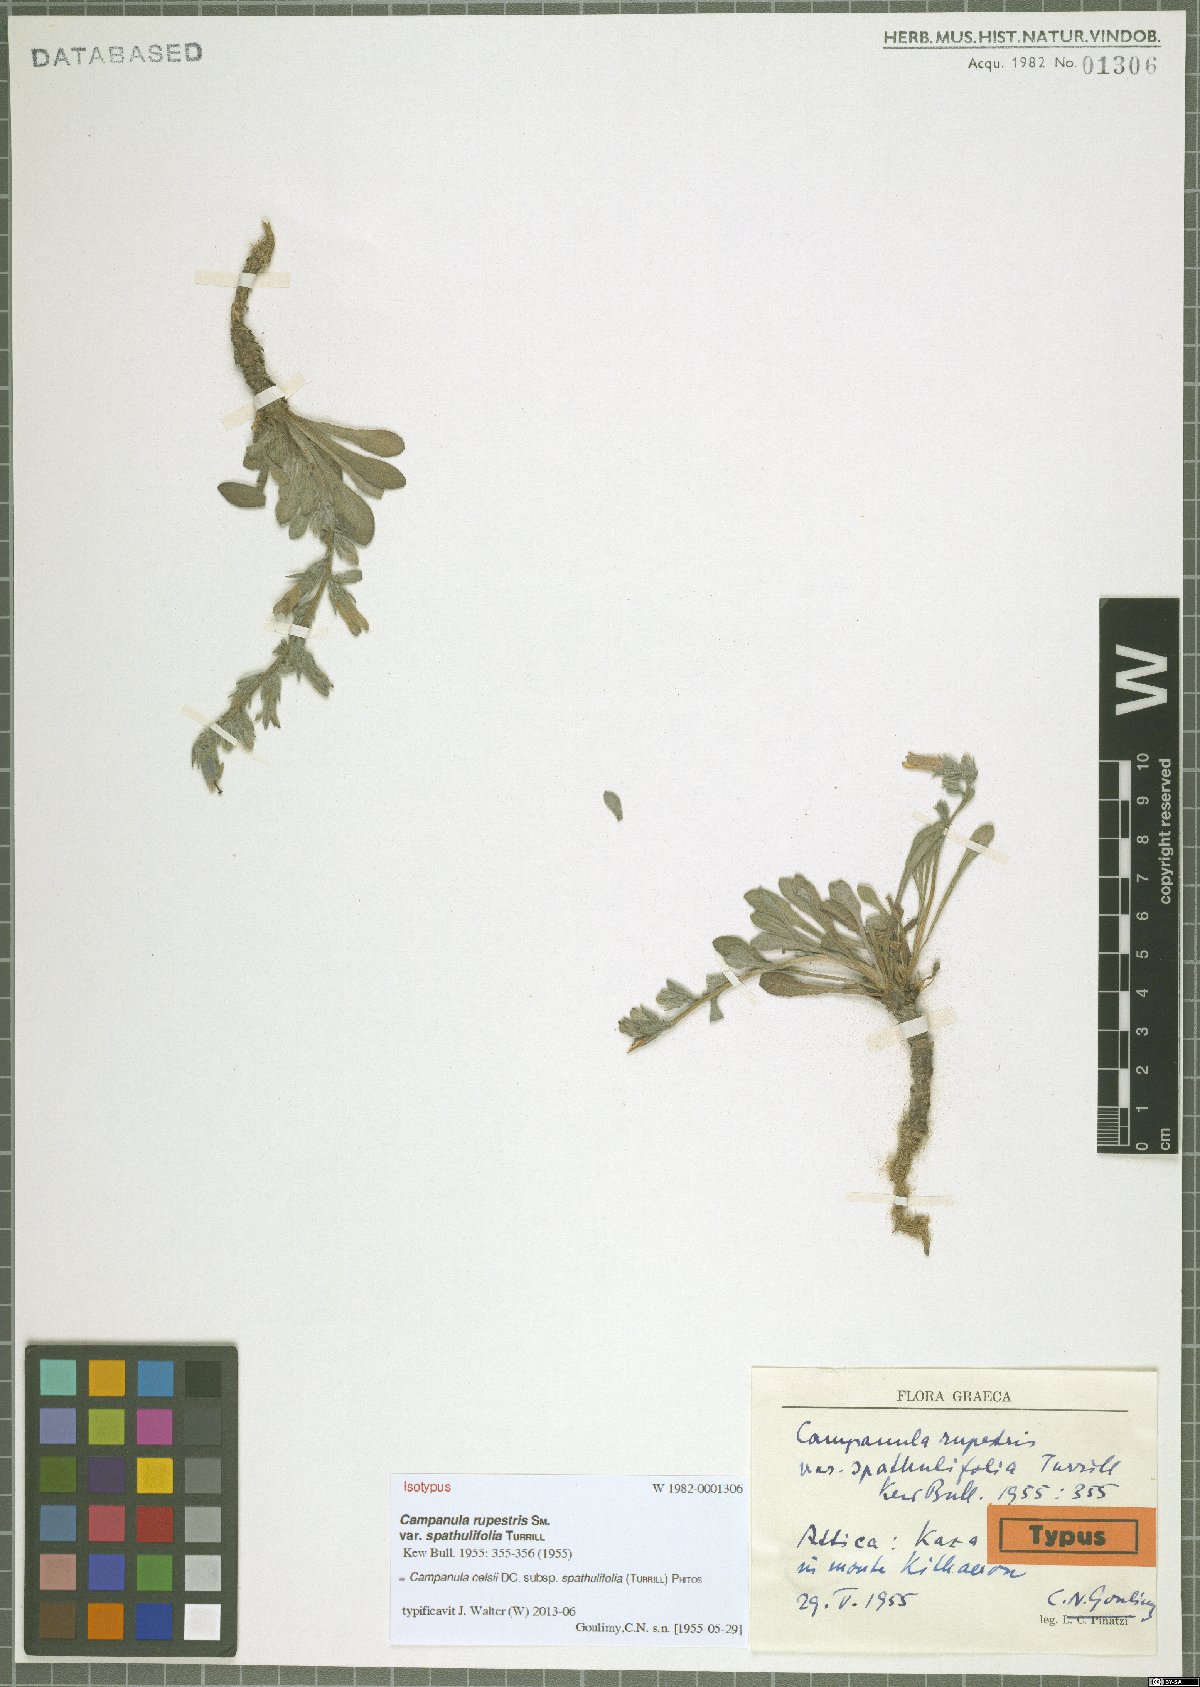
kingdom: Plantae
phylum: Tracheophyta
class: Magnoliopsida
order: Asterales
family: Campanulaceae
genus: Campanula
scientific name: Campanula celsii
